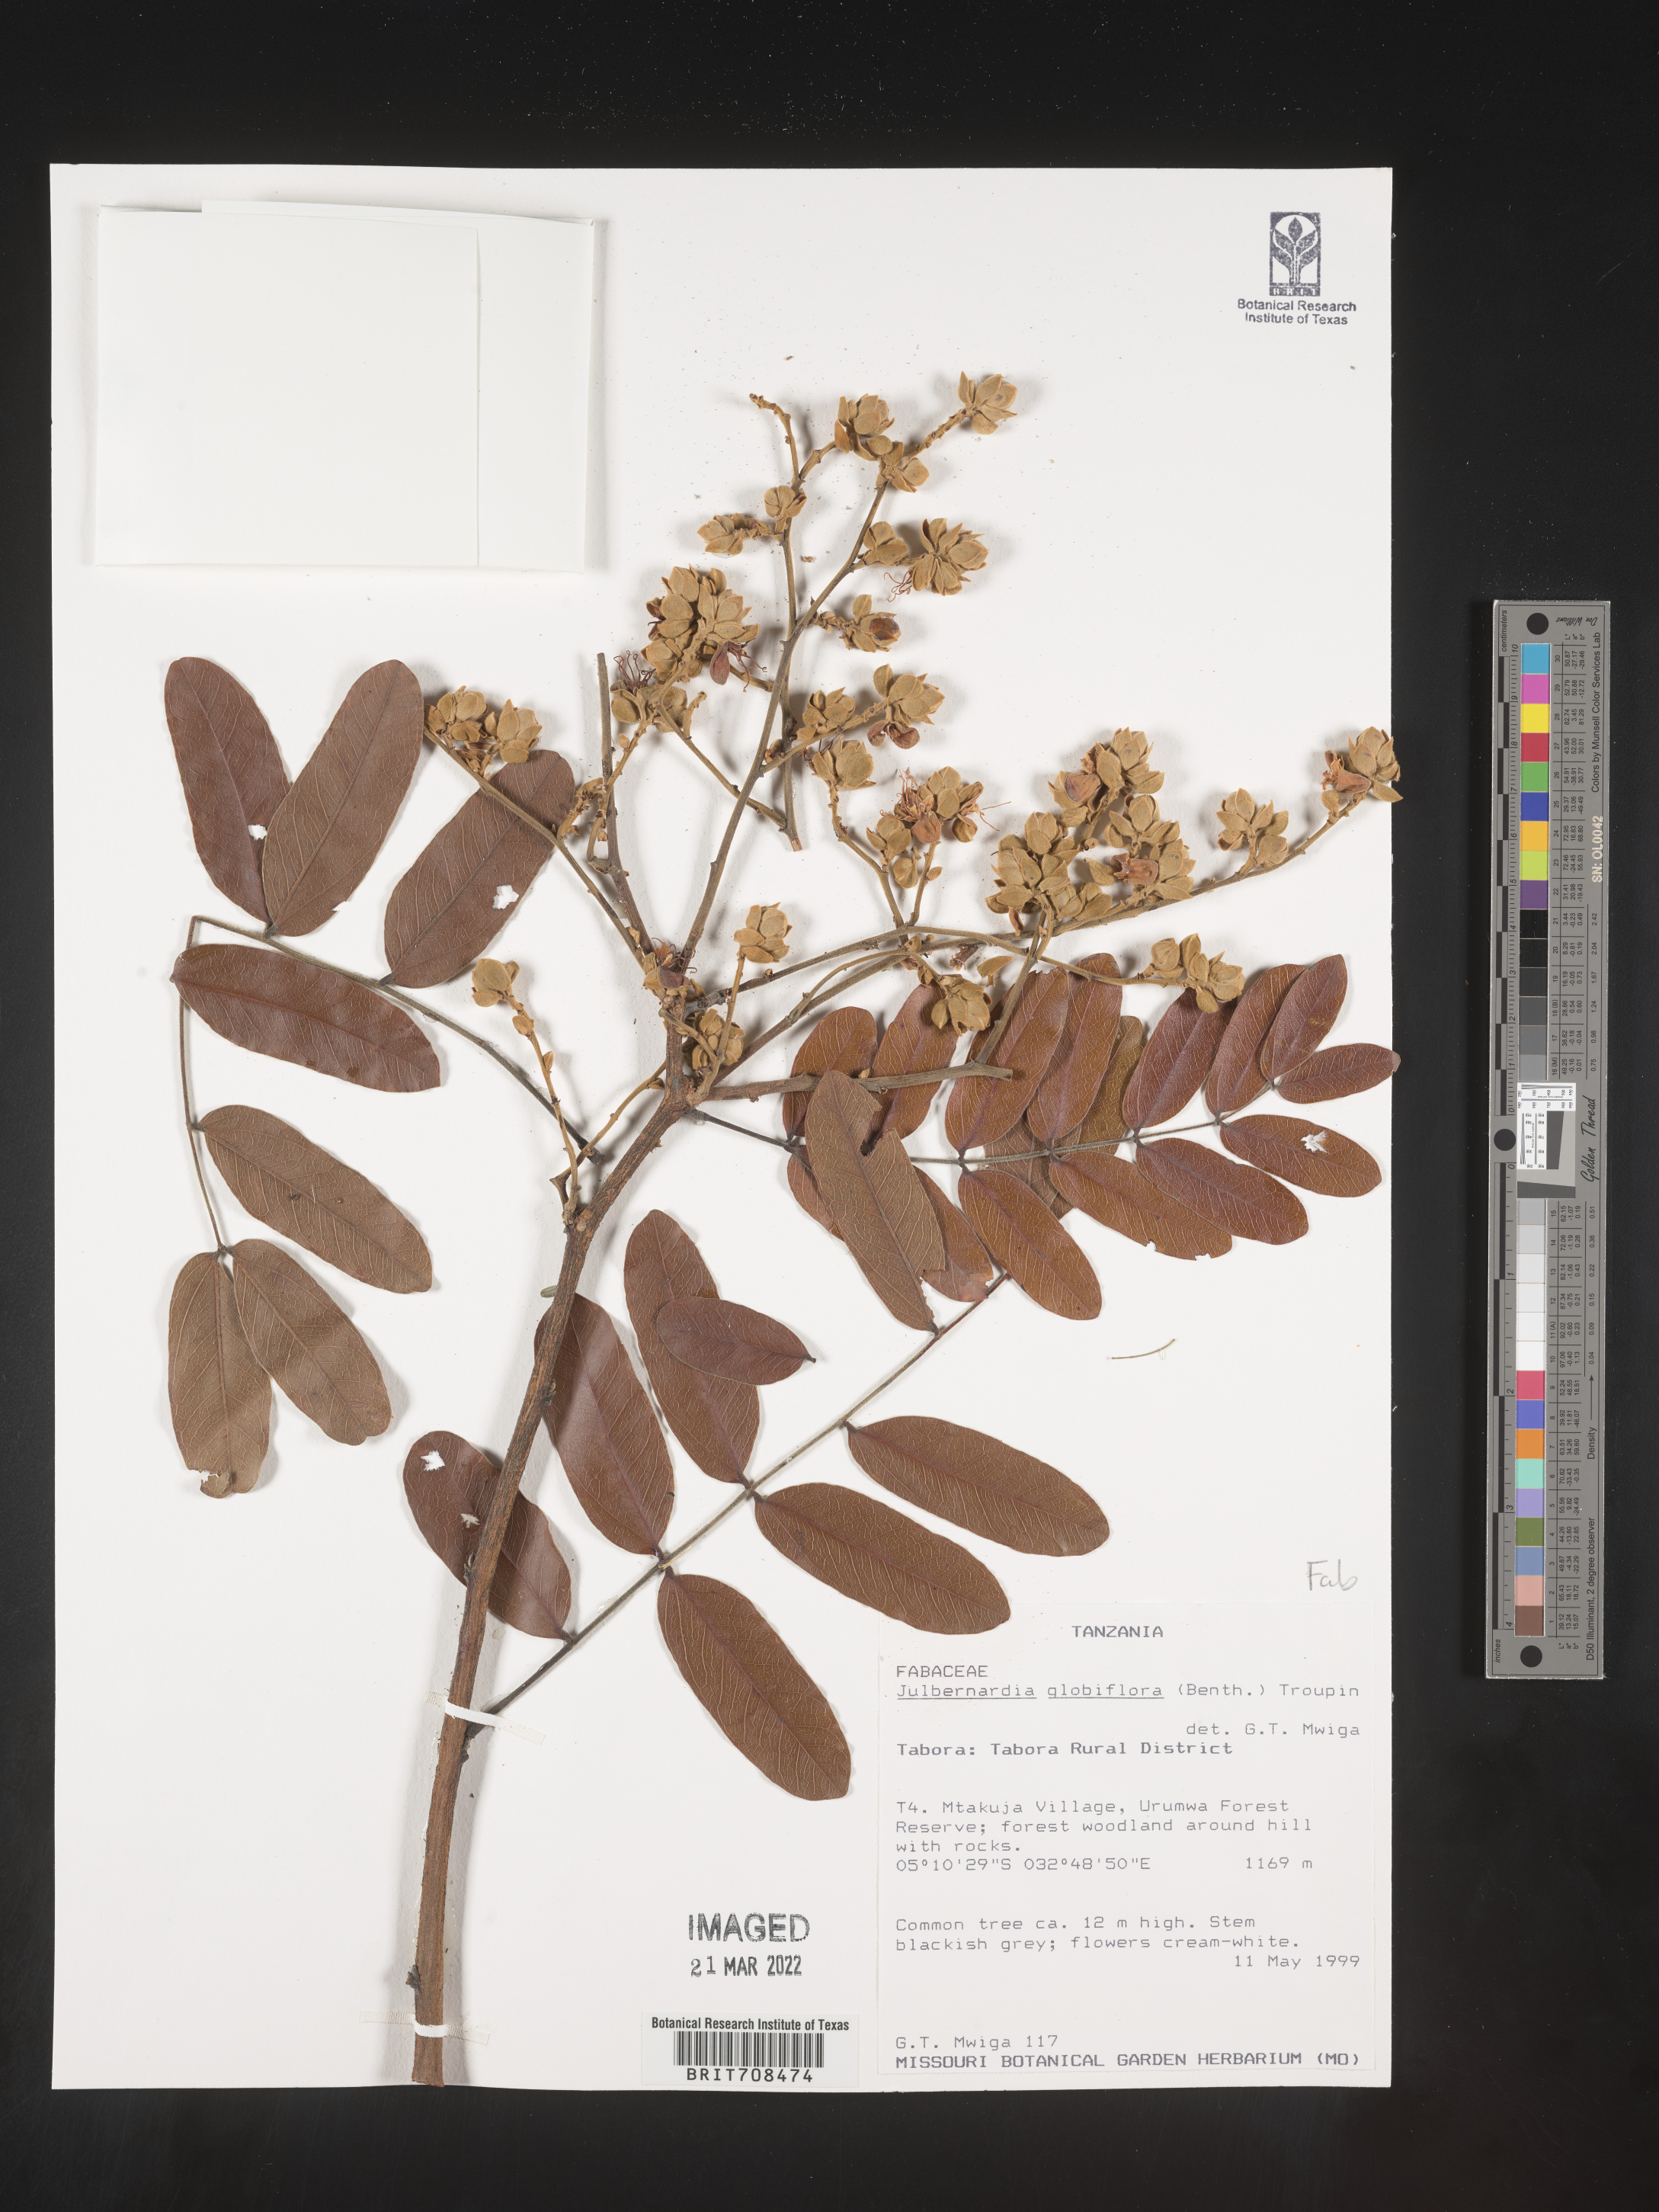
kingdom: Plantae
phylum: Tracheophyta
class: Magnoliopsida
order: Fabales
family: Fabaceae
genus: Julbernardia
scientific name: Julbernardia
